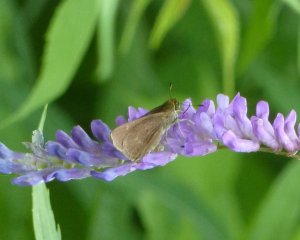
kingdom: Animalia
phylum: Arthropoda
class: Insecta
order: Lepidoptera
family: Hesperiidae
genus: Euphyes
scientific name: Euphyes vestris
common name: Dun Skipper
